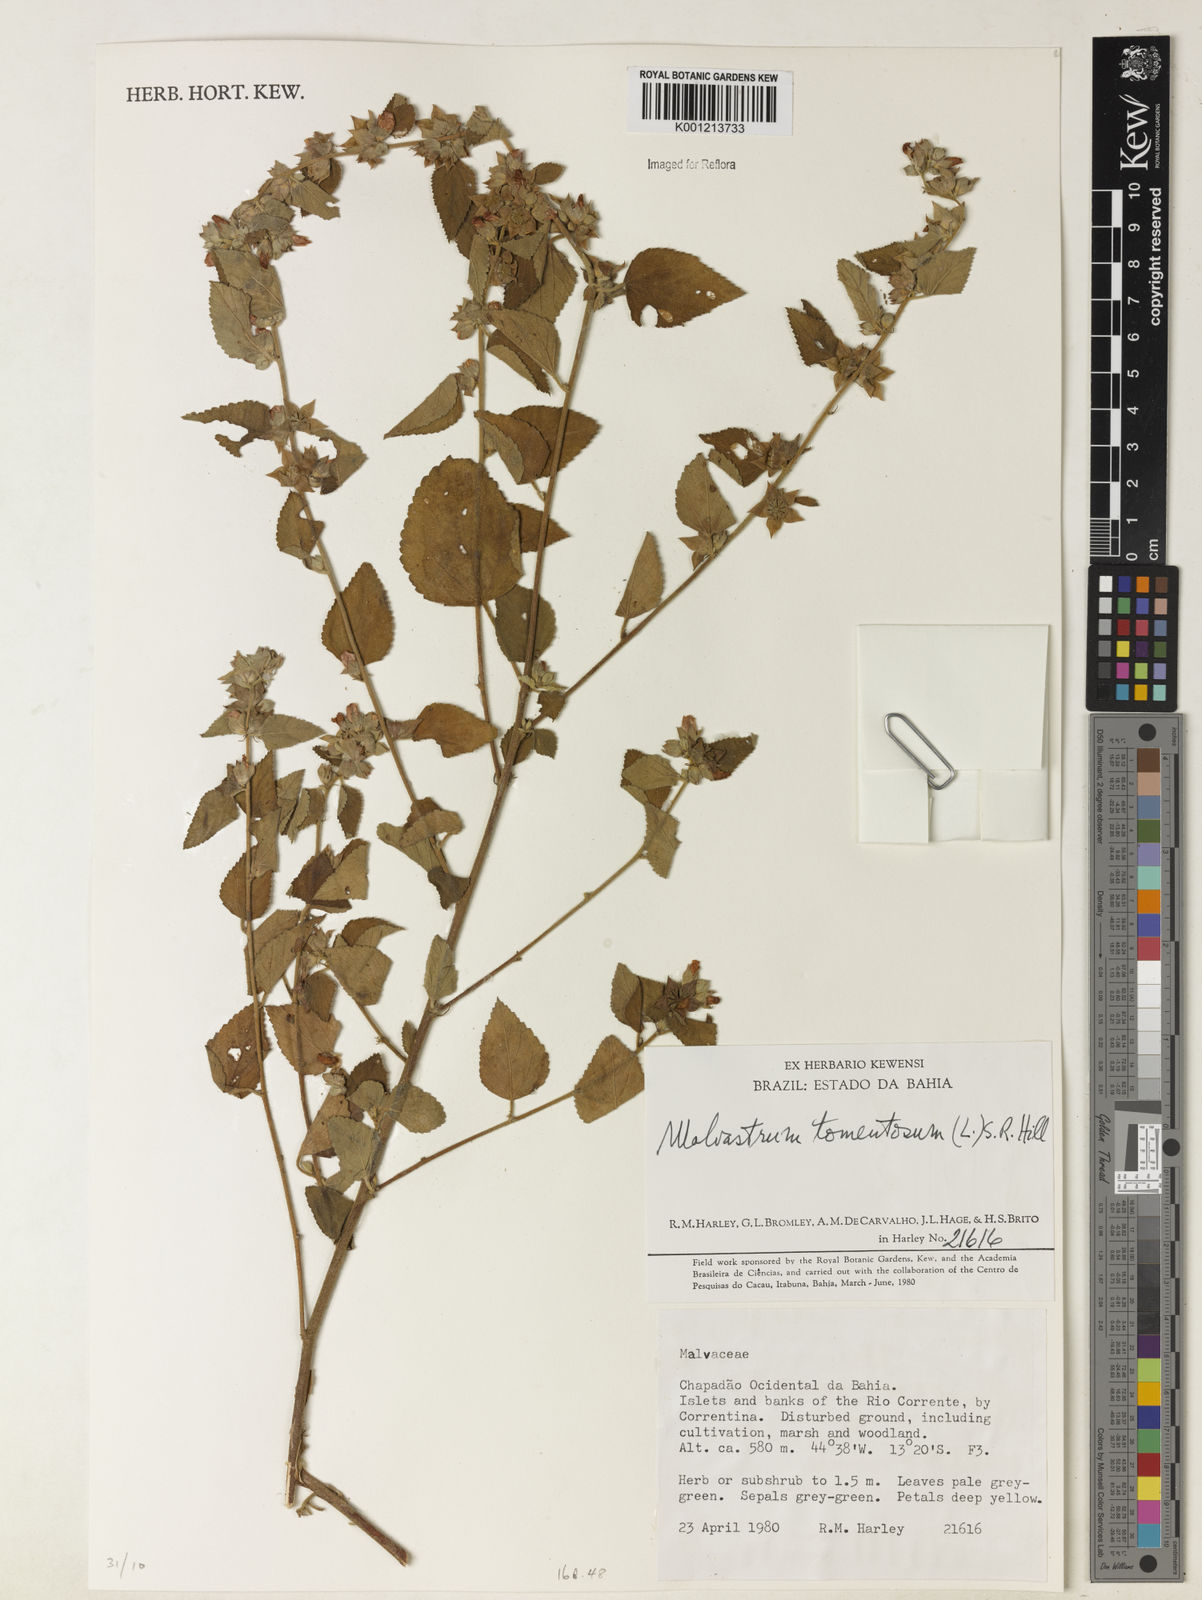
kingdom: Plantae
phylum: Tracheophyta
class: Magnoliopsida
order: Malvales
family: Malvaceae
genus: Malvastrum
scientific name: Malvastrum tomentosum
